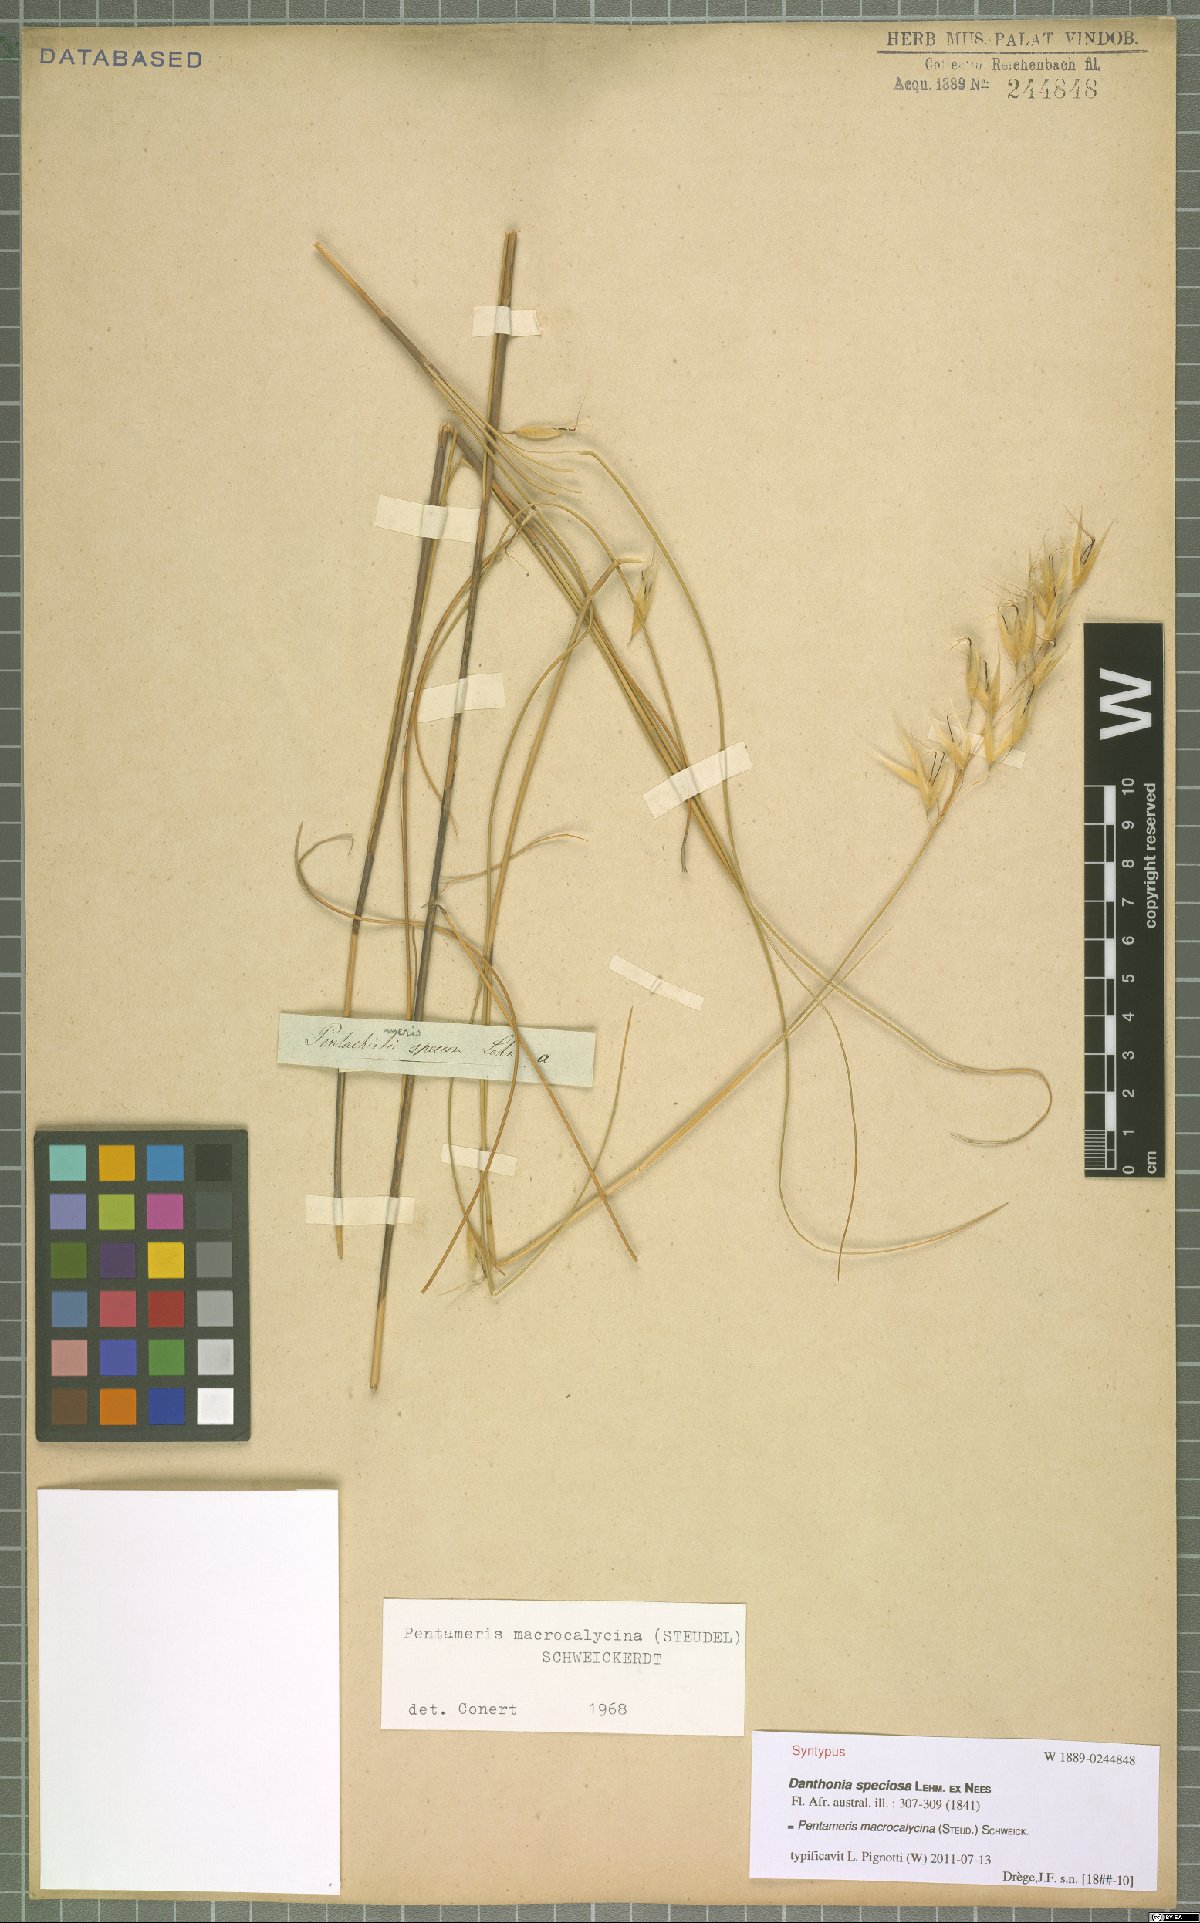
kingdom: Plantae
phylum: Tracheophyta
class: Liliopsida
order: Poales
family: Poaceae
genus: Pentameris
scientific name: Pentameris macrocalycina
